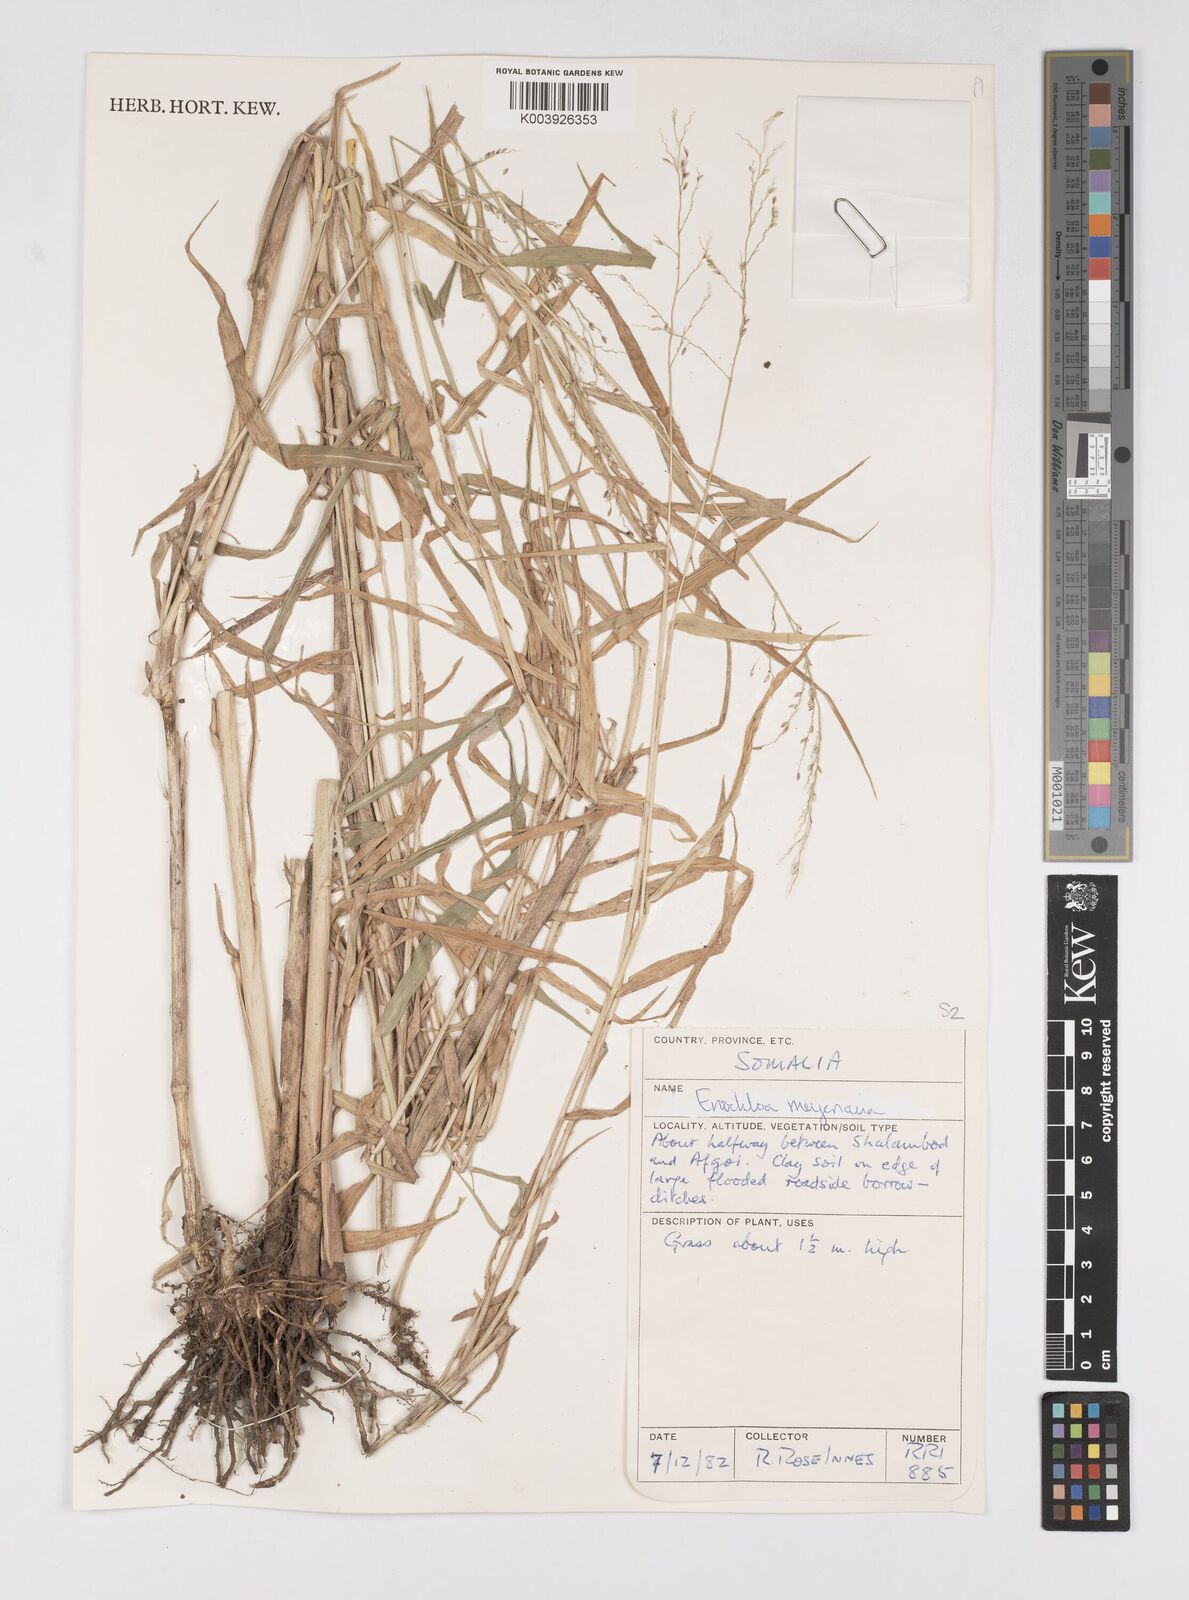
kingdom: Plantae
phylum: Tracheophyta
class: Liliopsida
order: Poales
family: Poaceae
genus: Eriochloa
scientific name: Eriochloa meyeriana
